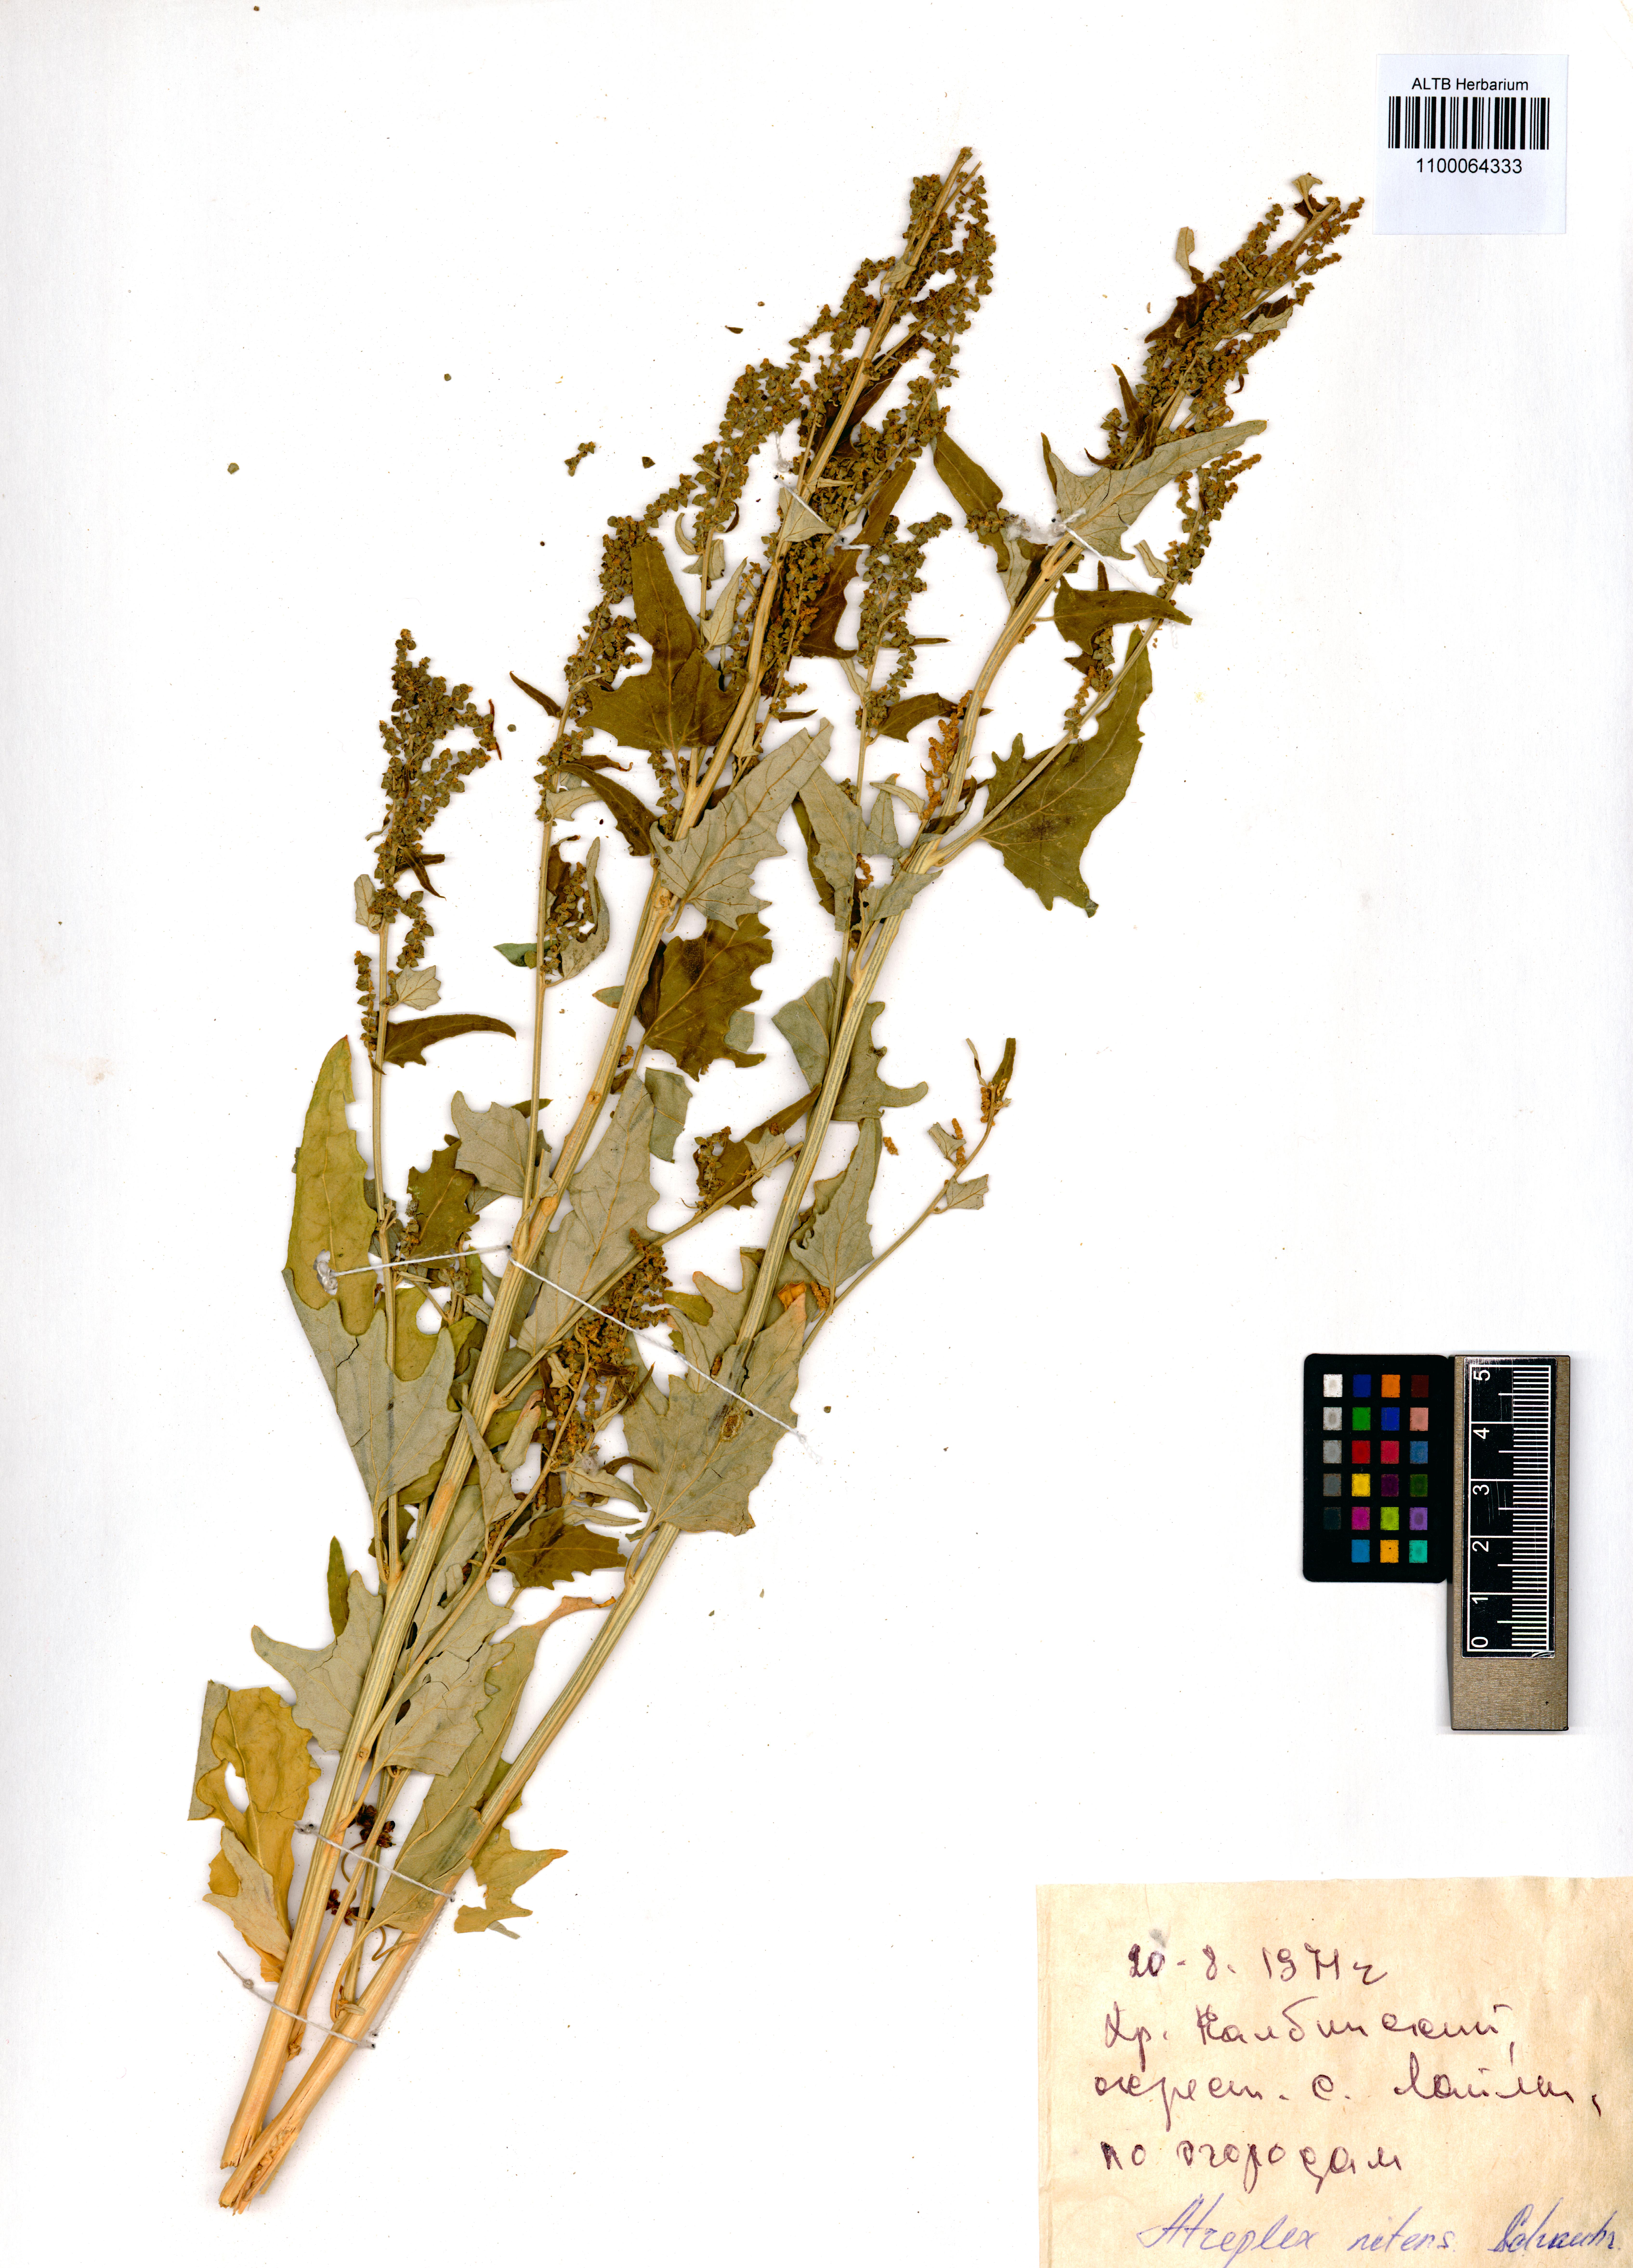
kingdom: Plantae
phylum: Tracheophyta
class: Magnoliopsida
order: Caryophyllales
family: Amaranthaceae
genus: Atriplex
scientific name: Atriplex sagittata
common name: Purple orache
